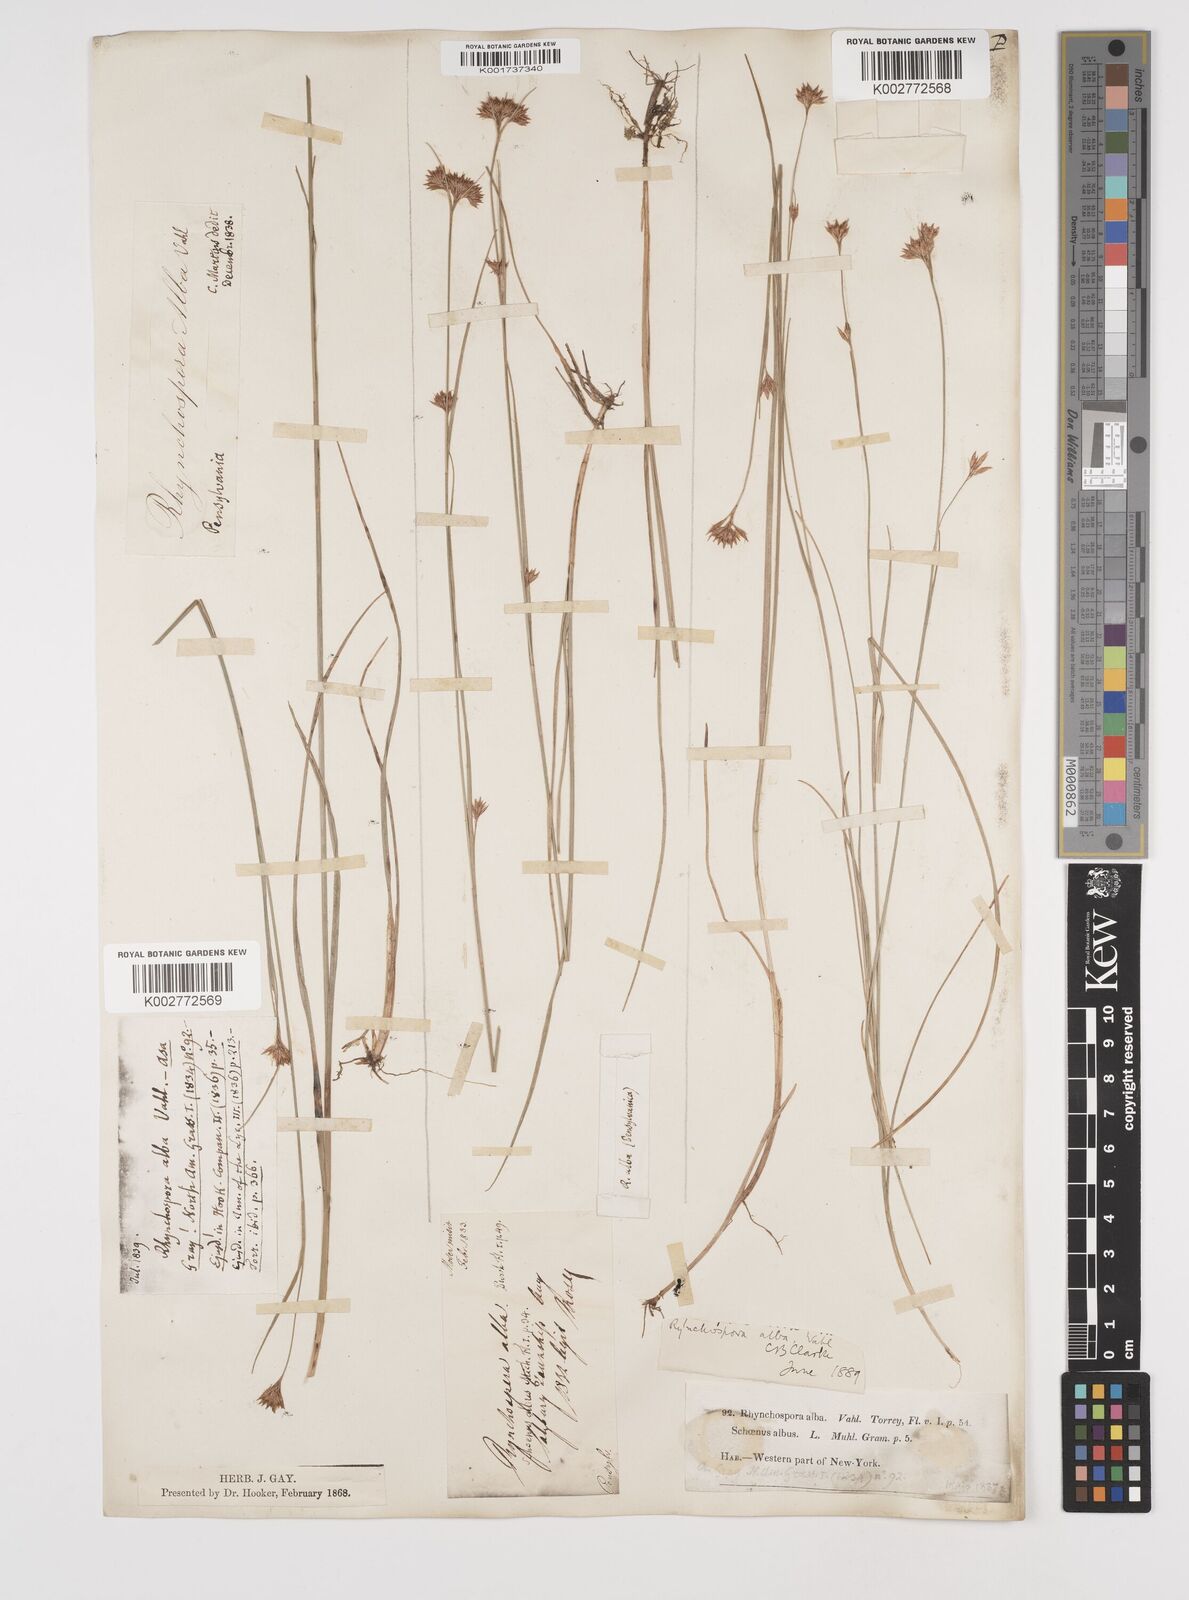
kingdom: Plantae
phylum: Tracheophyta
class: Liliopsida
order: Poales
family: Cyperaceae
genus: Rhynchospora
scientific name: Rhynchospora alba
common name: White beak-sedge
